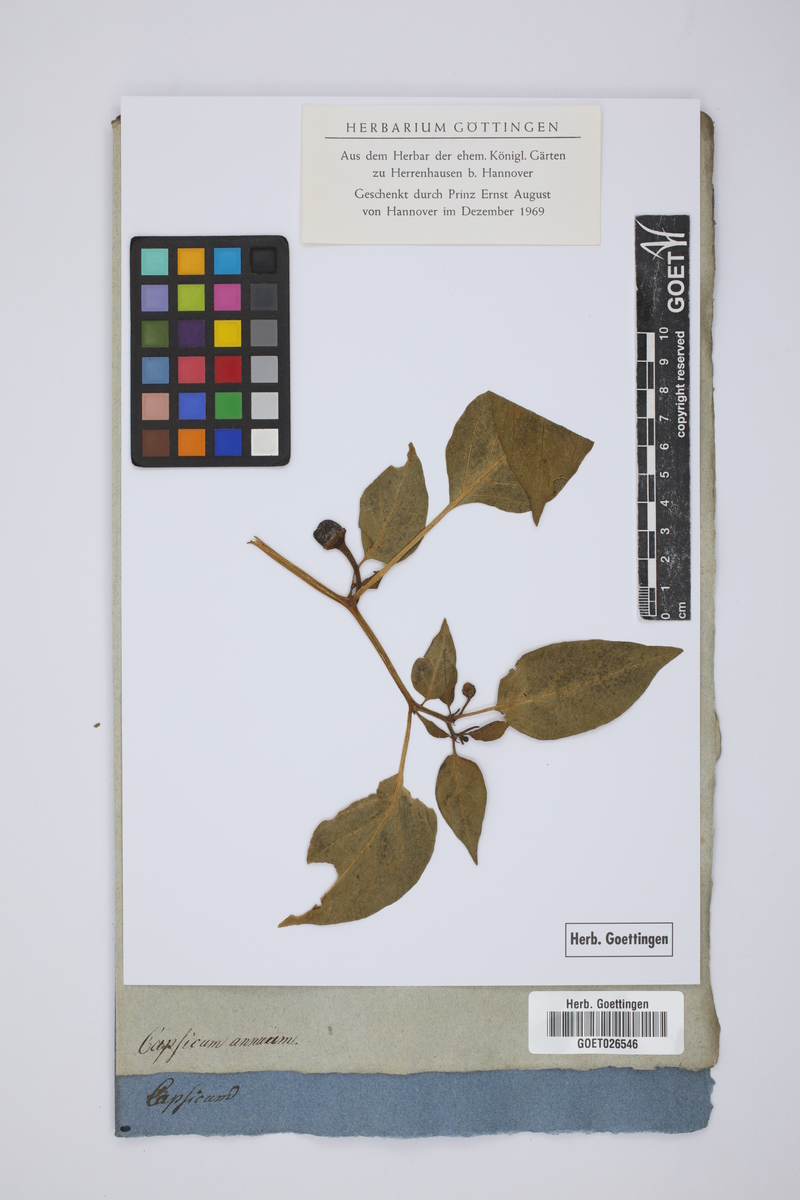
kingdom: Plantae
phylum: Tracheophyta
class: Magnoliopsida
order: Solanales
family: Solanaceae
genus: Capsicum
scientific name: Capsicum annuum
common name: Sweet pepper
